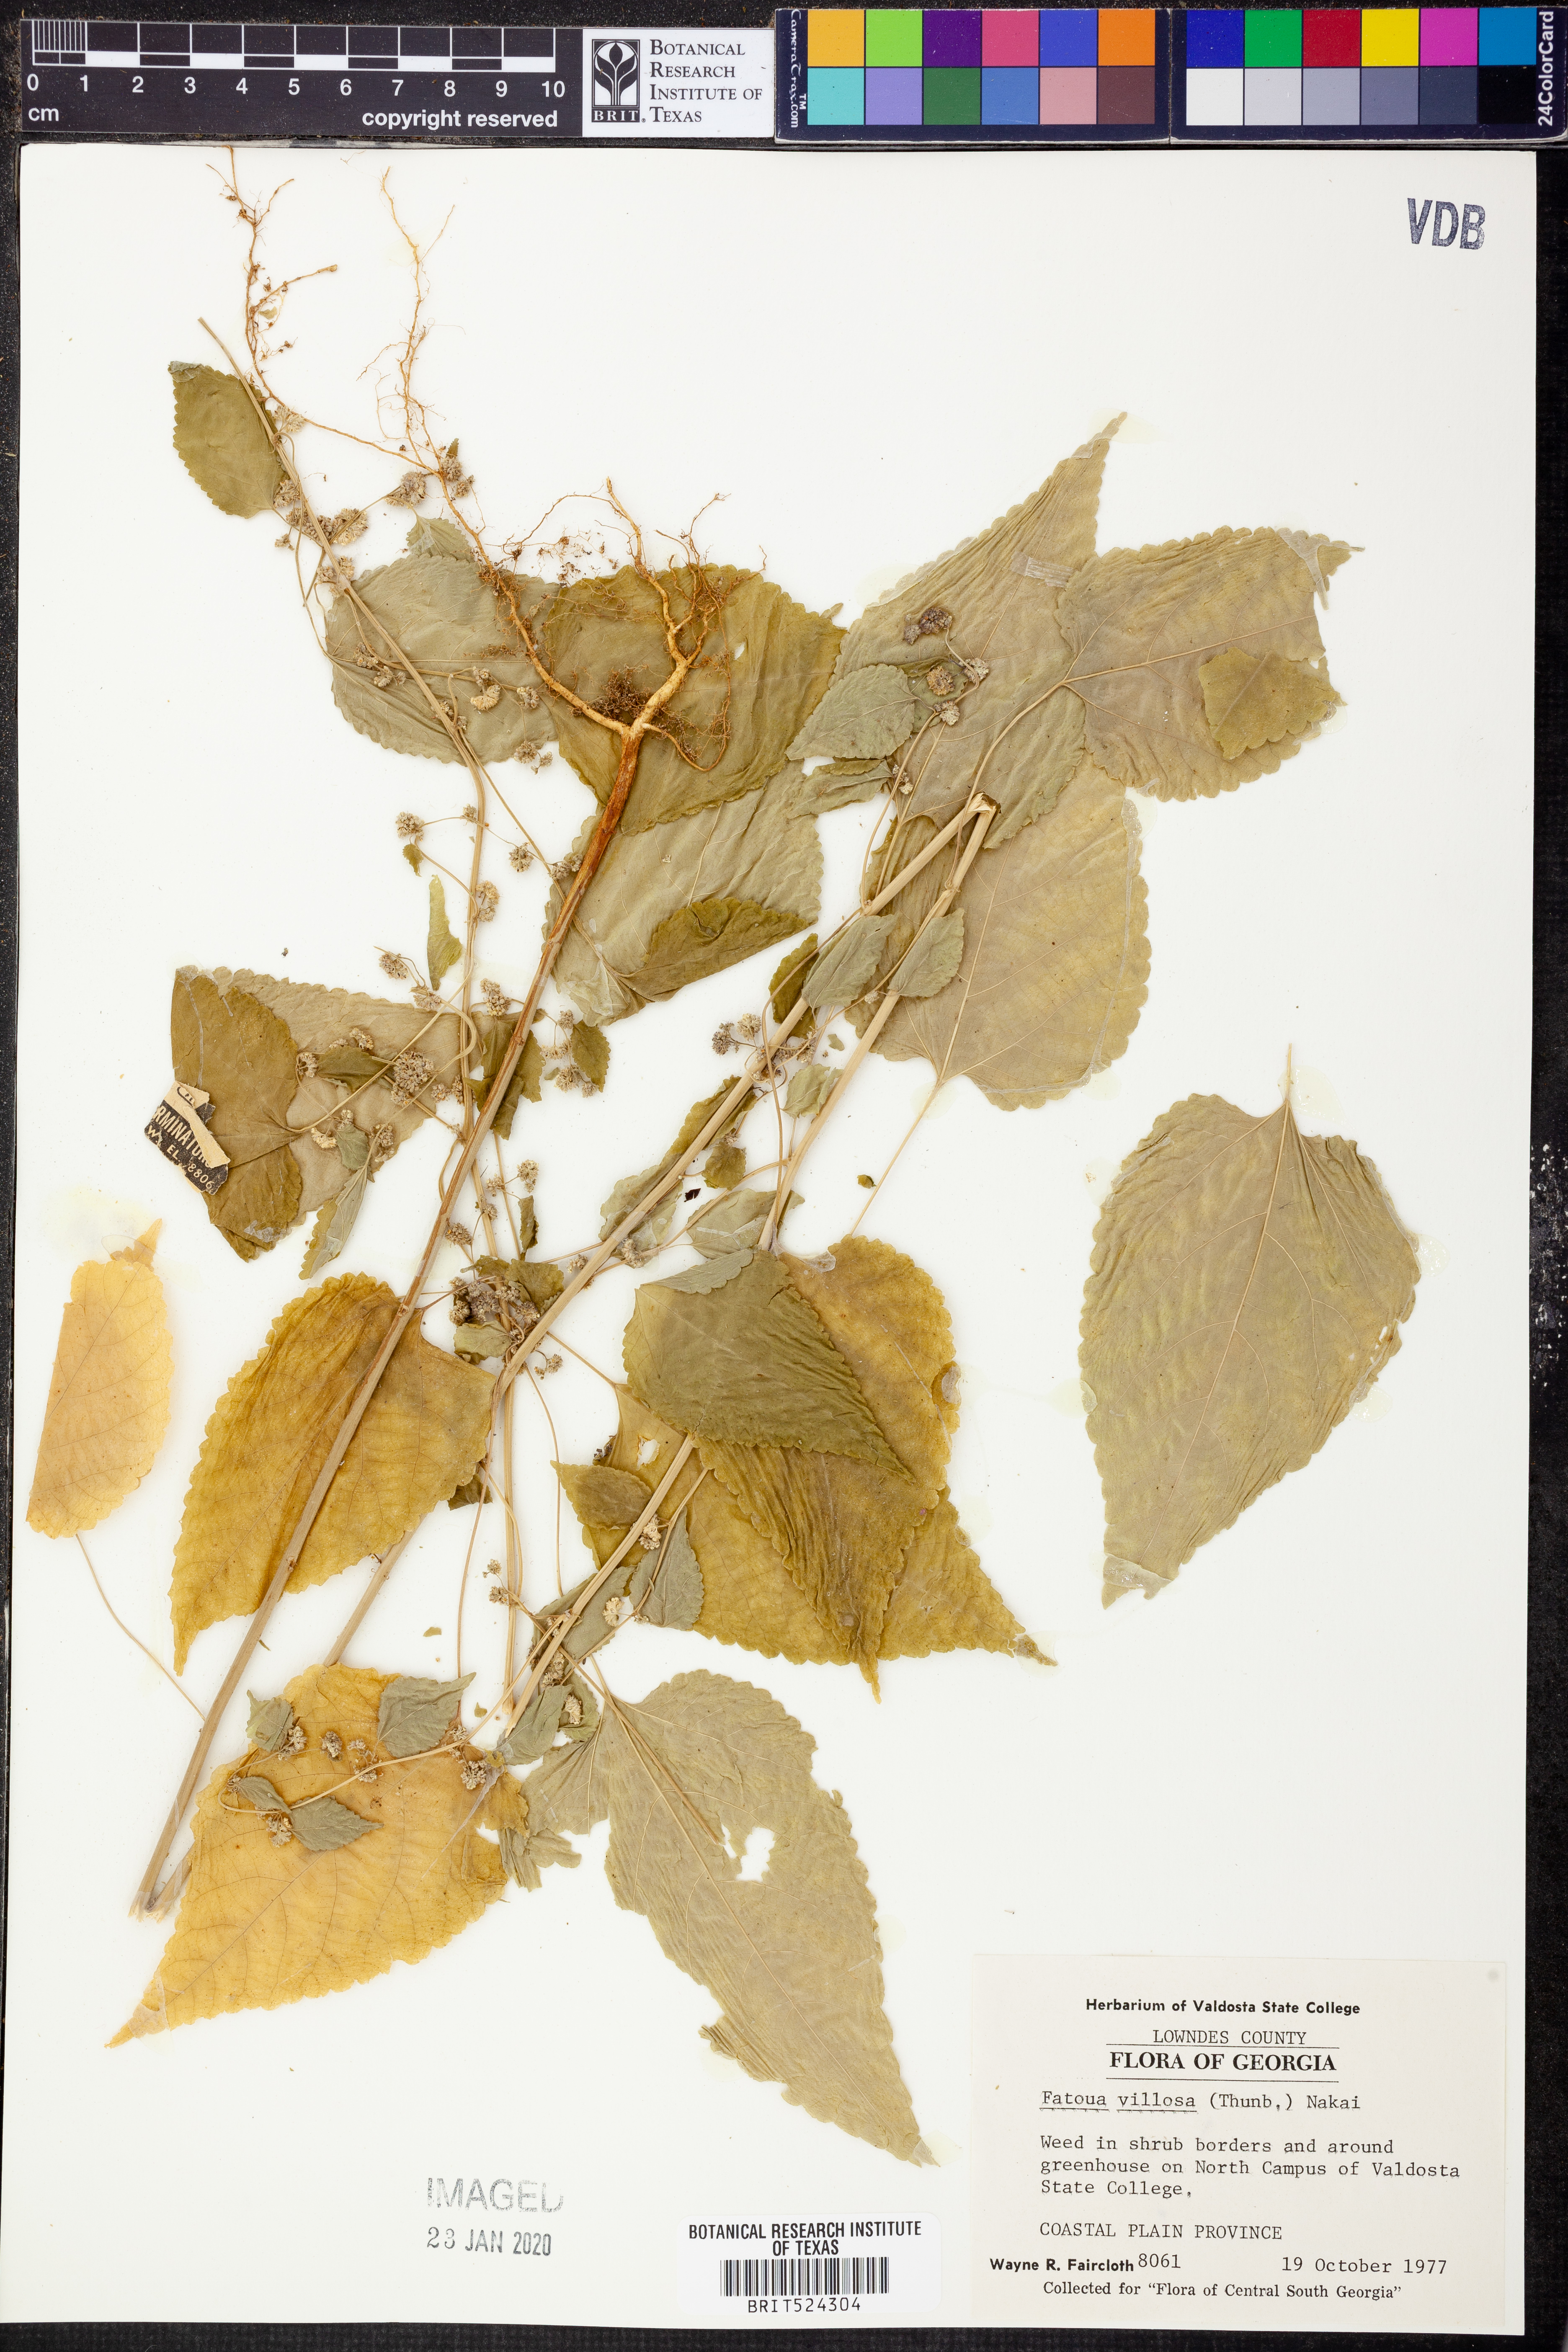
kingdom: Plantae
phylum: Tracheophyta
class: Magnoliopsida
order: Rosales
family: Moraceae
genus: Fatoua
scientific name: Fatoua villosa
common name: Hairy crabweed
